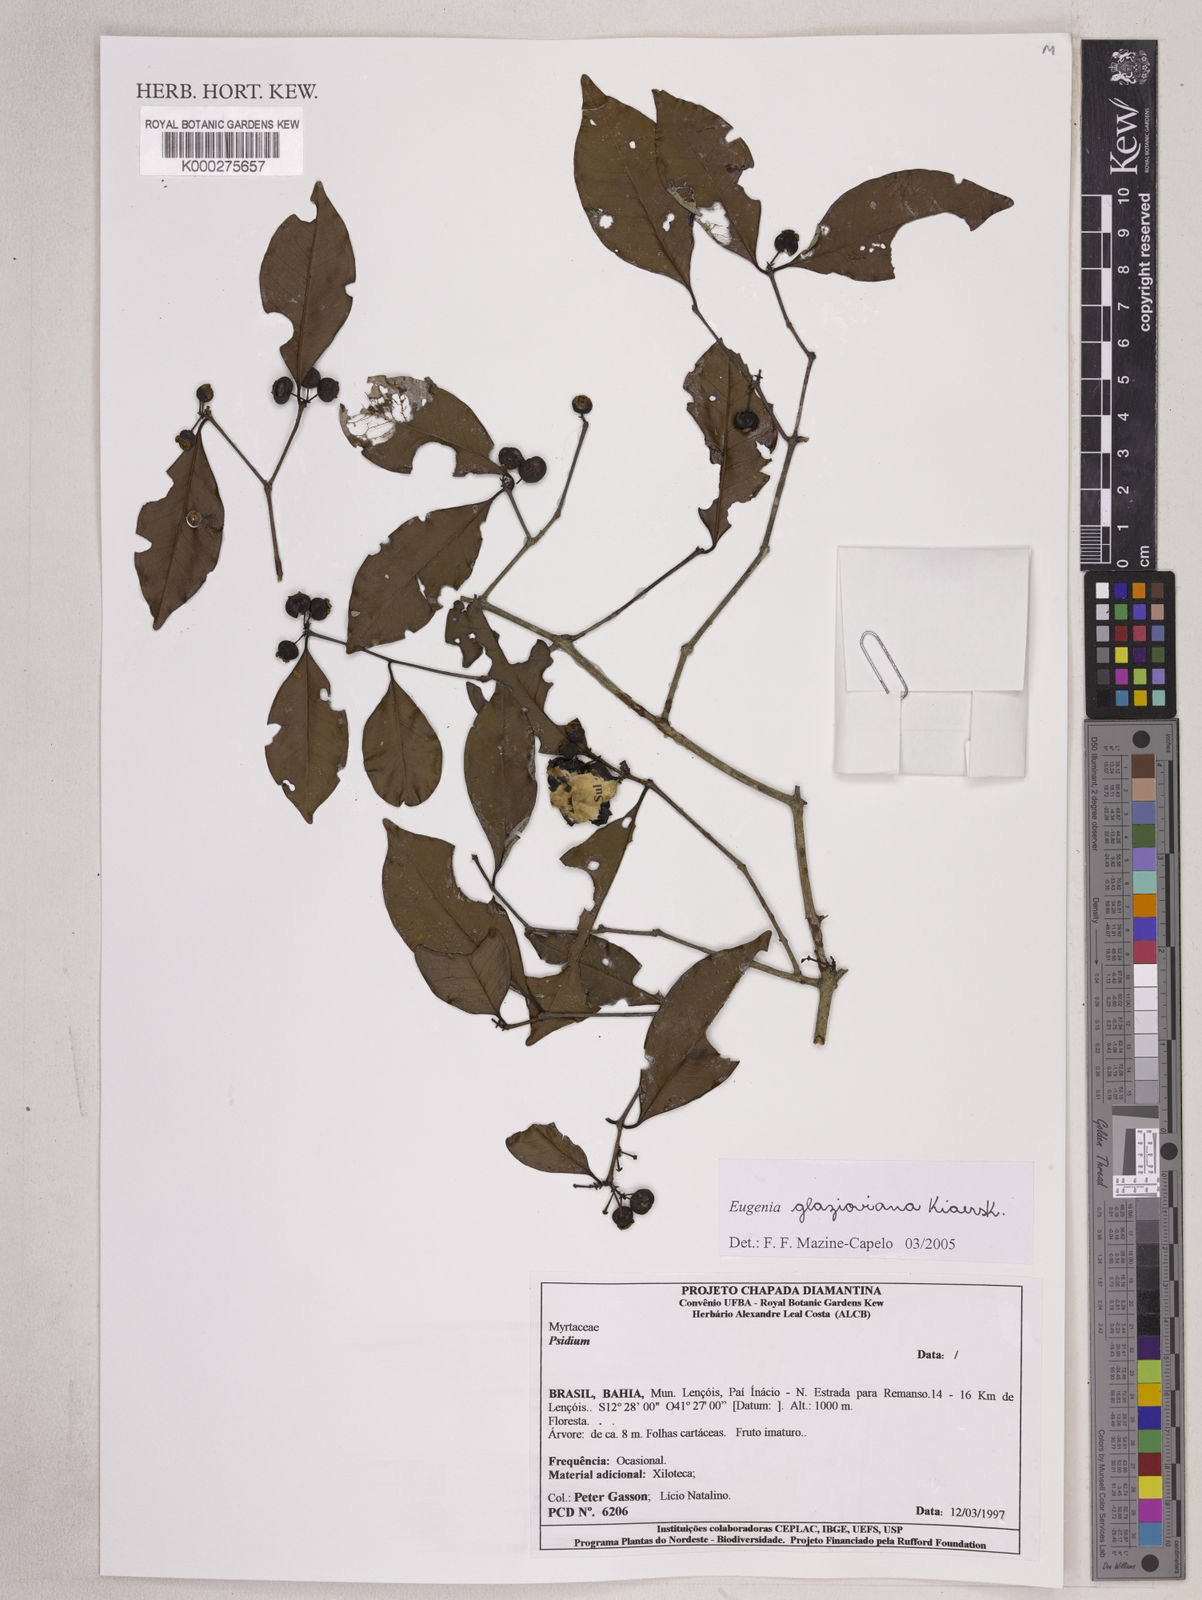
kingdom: Plantae
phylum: Tracheophyta
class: Magnoliopsida
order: Myrtales
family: Myrtaceae
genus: Myrcia
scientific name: Myrcia multiflora
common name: Pedra hume
